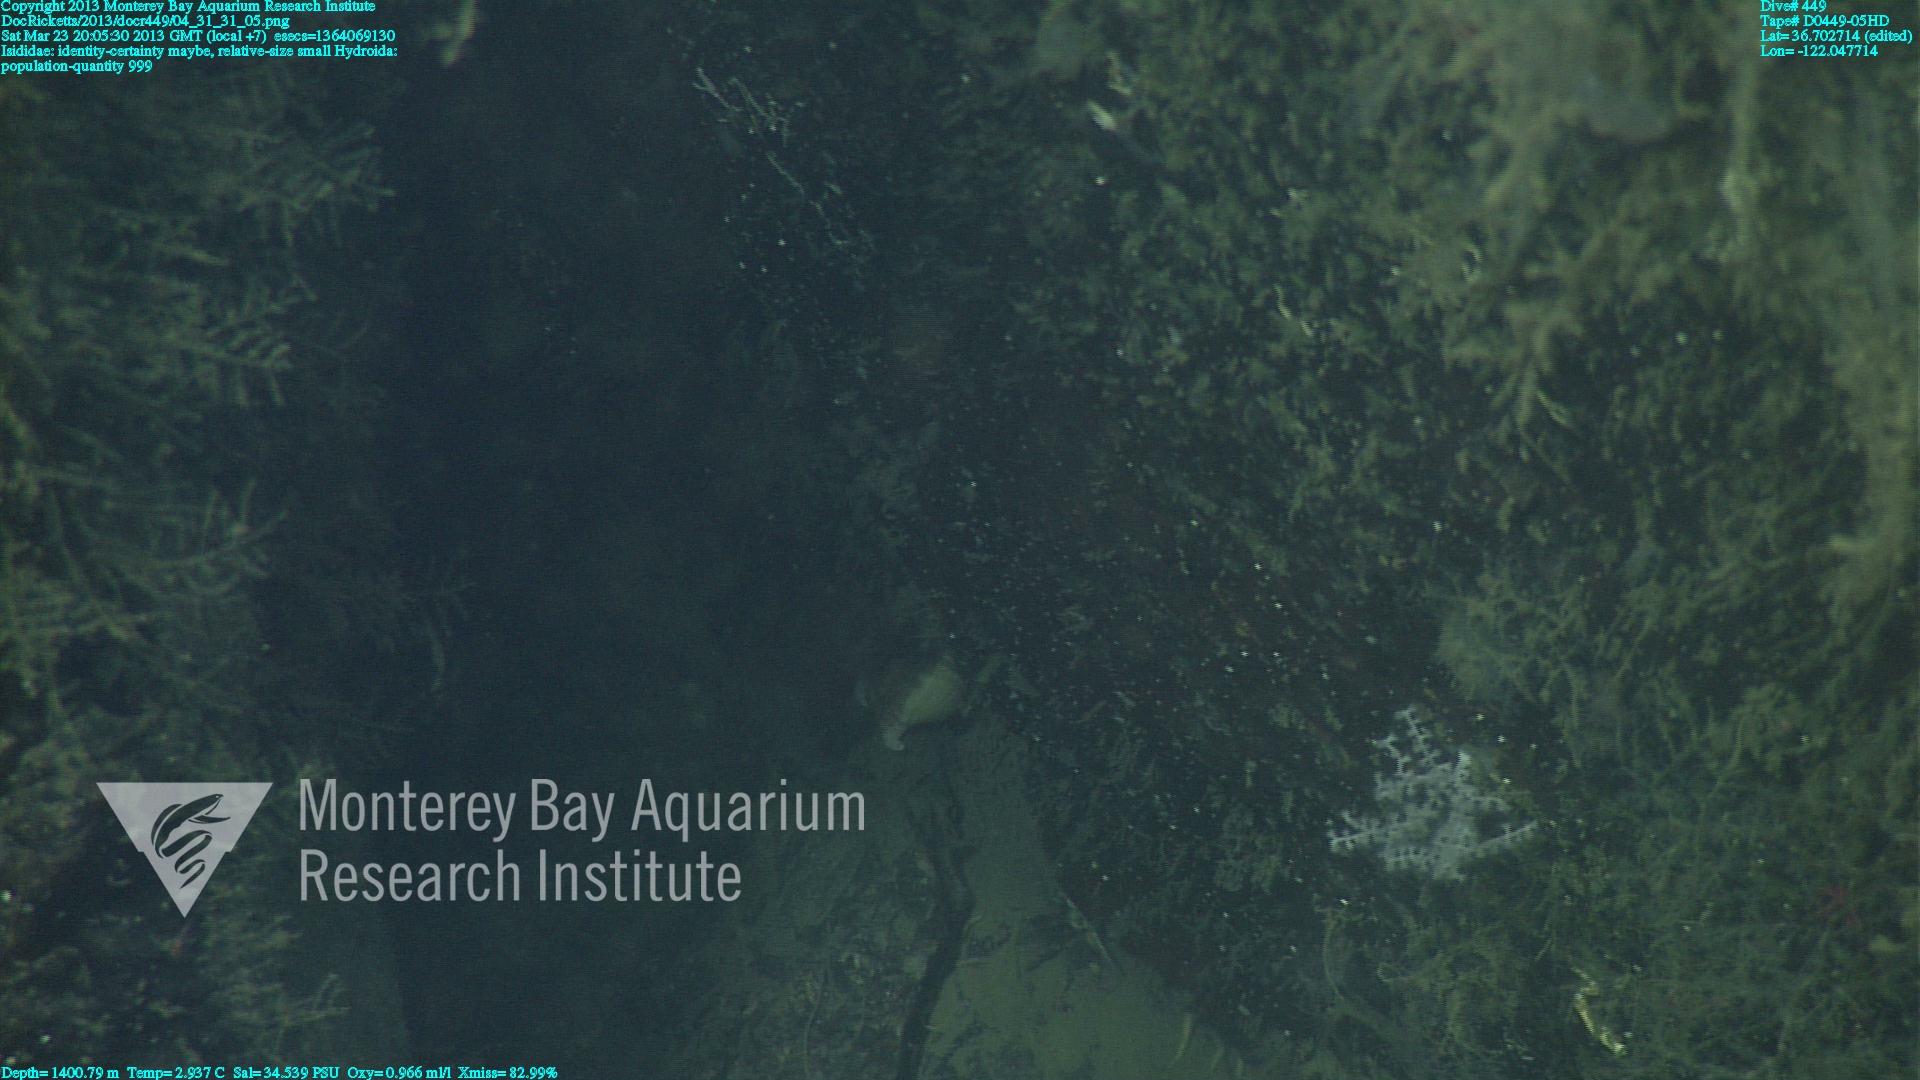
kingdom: Animalia
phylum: Cnidaria
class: Anthozoa
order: Scleralcyonacea
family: Keratoisididae
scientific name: Keratoisididae
